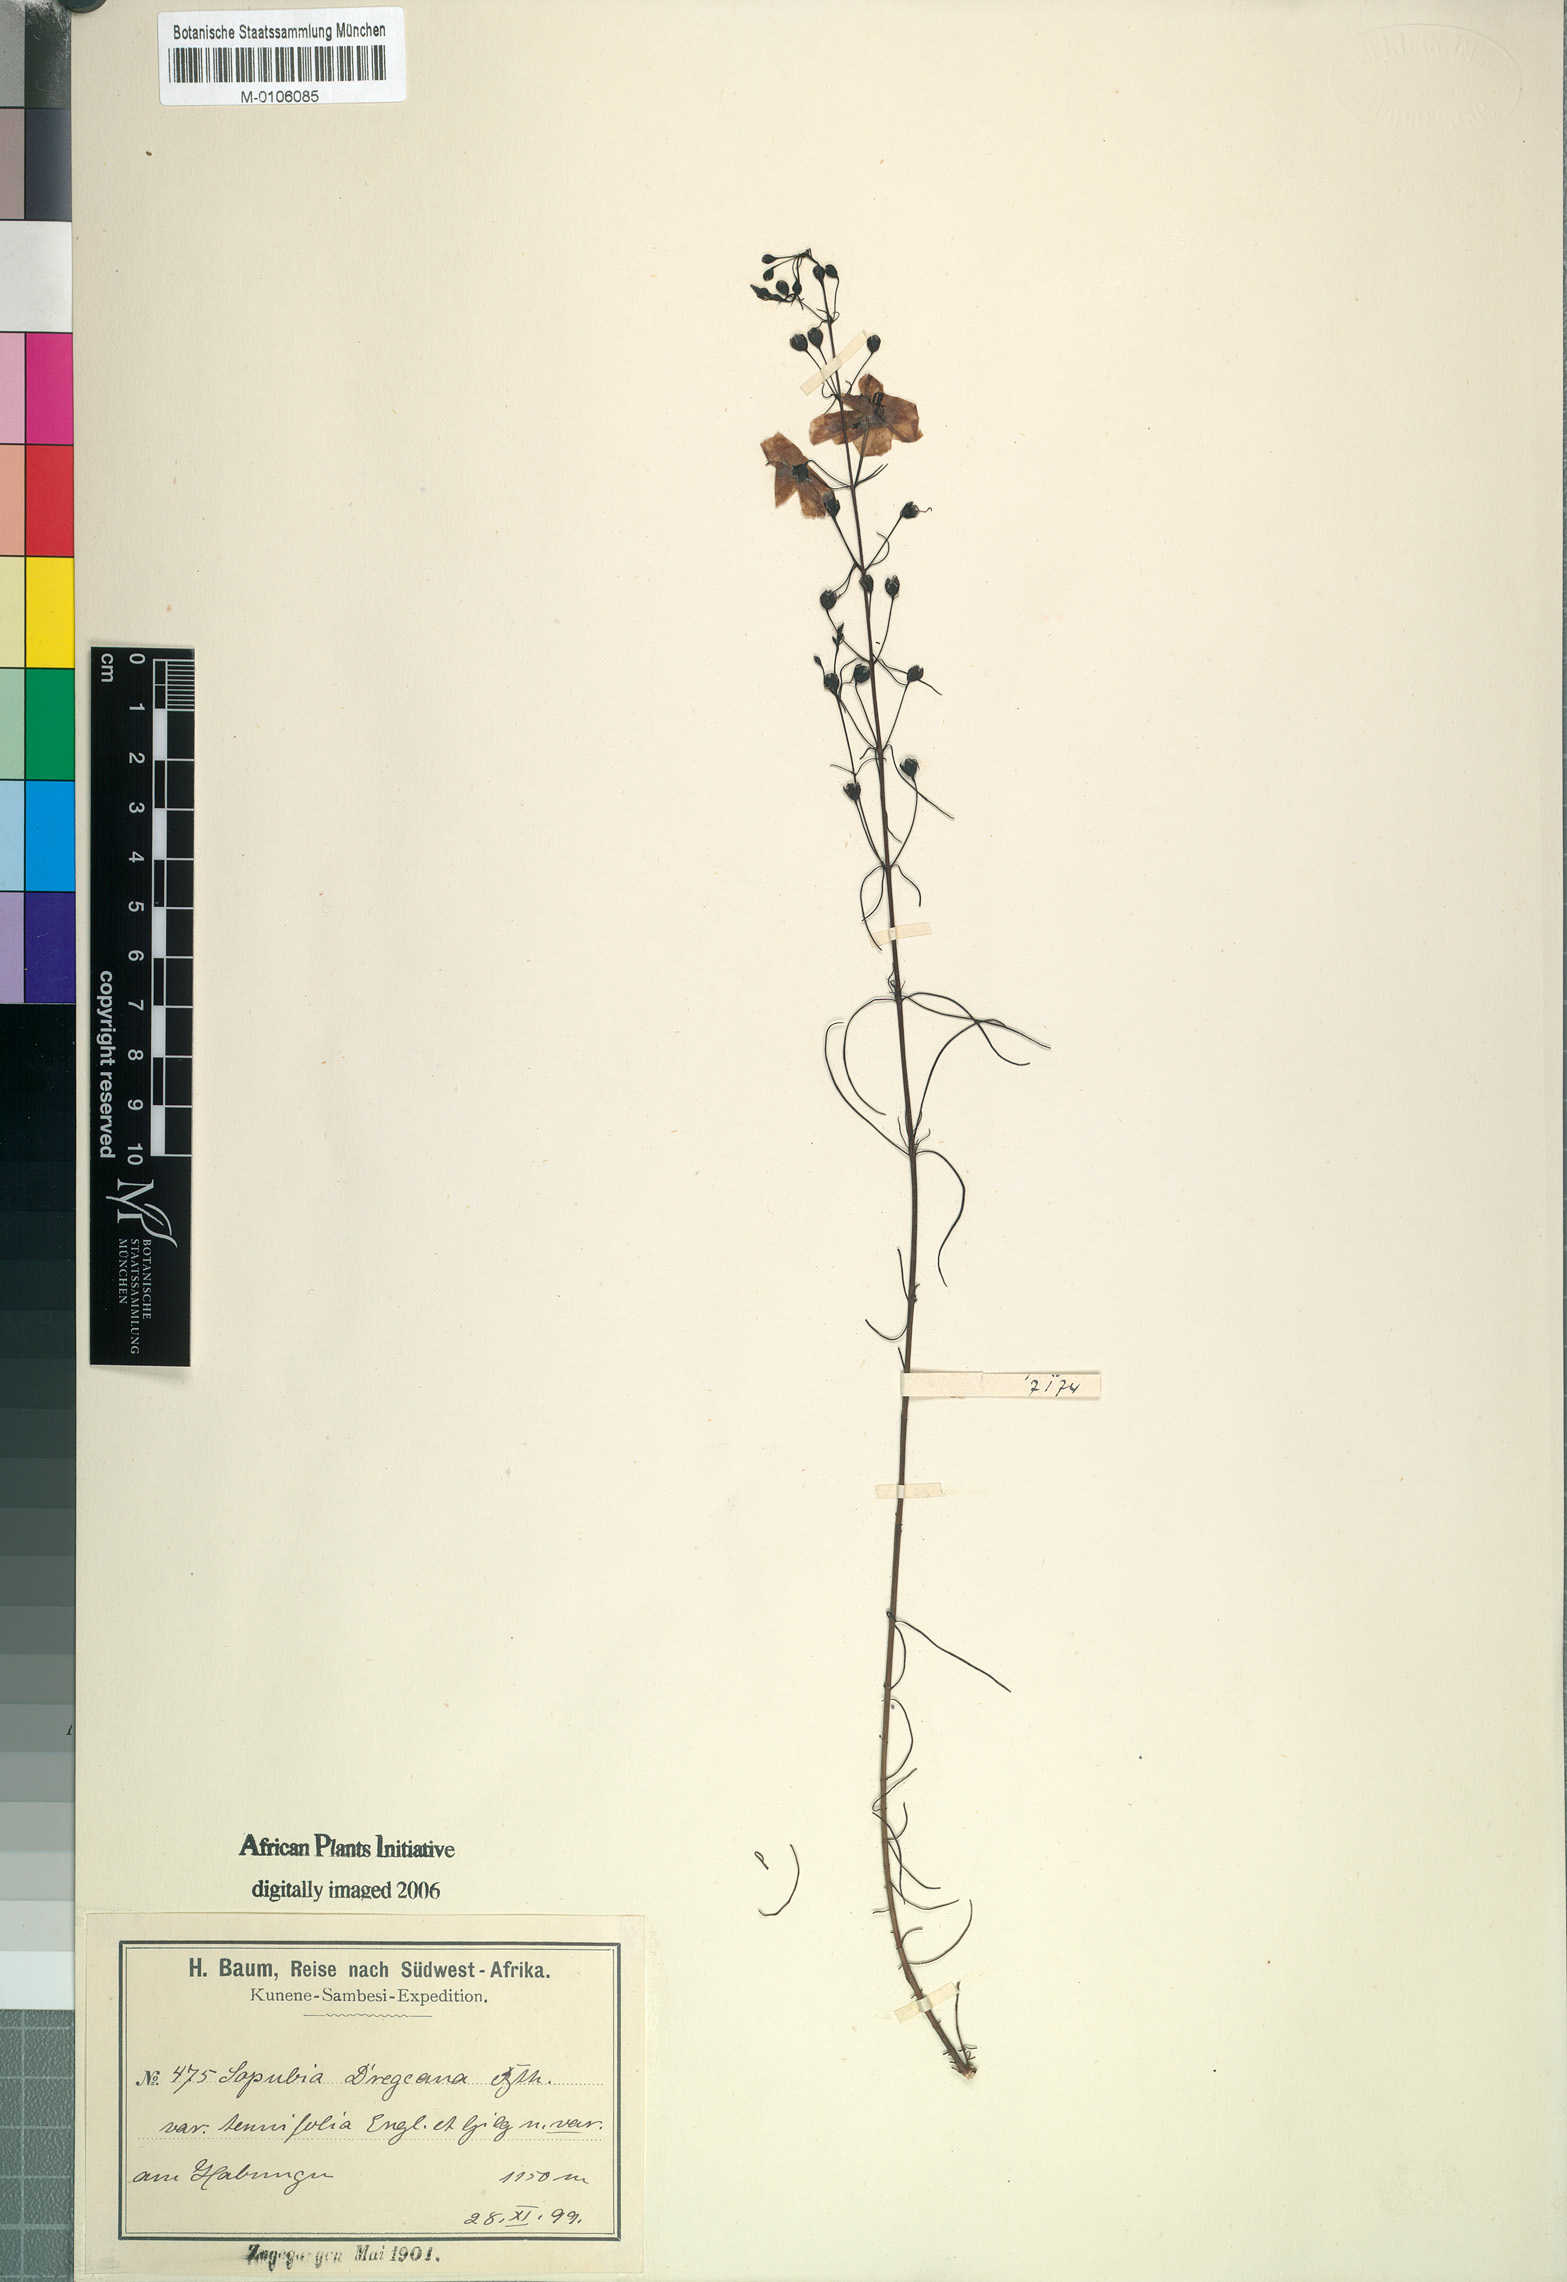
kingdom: Plantae
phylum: Tracheophyta
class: Magnoliopsida
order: Lamiales
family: Orobanchaceae
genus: Sopubia
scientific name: Sopubia simplex
